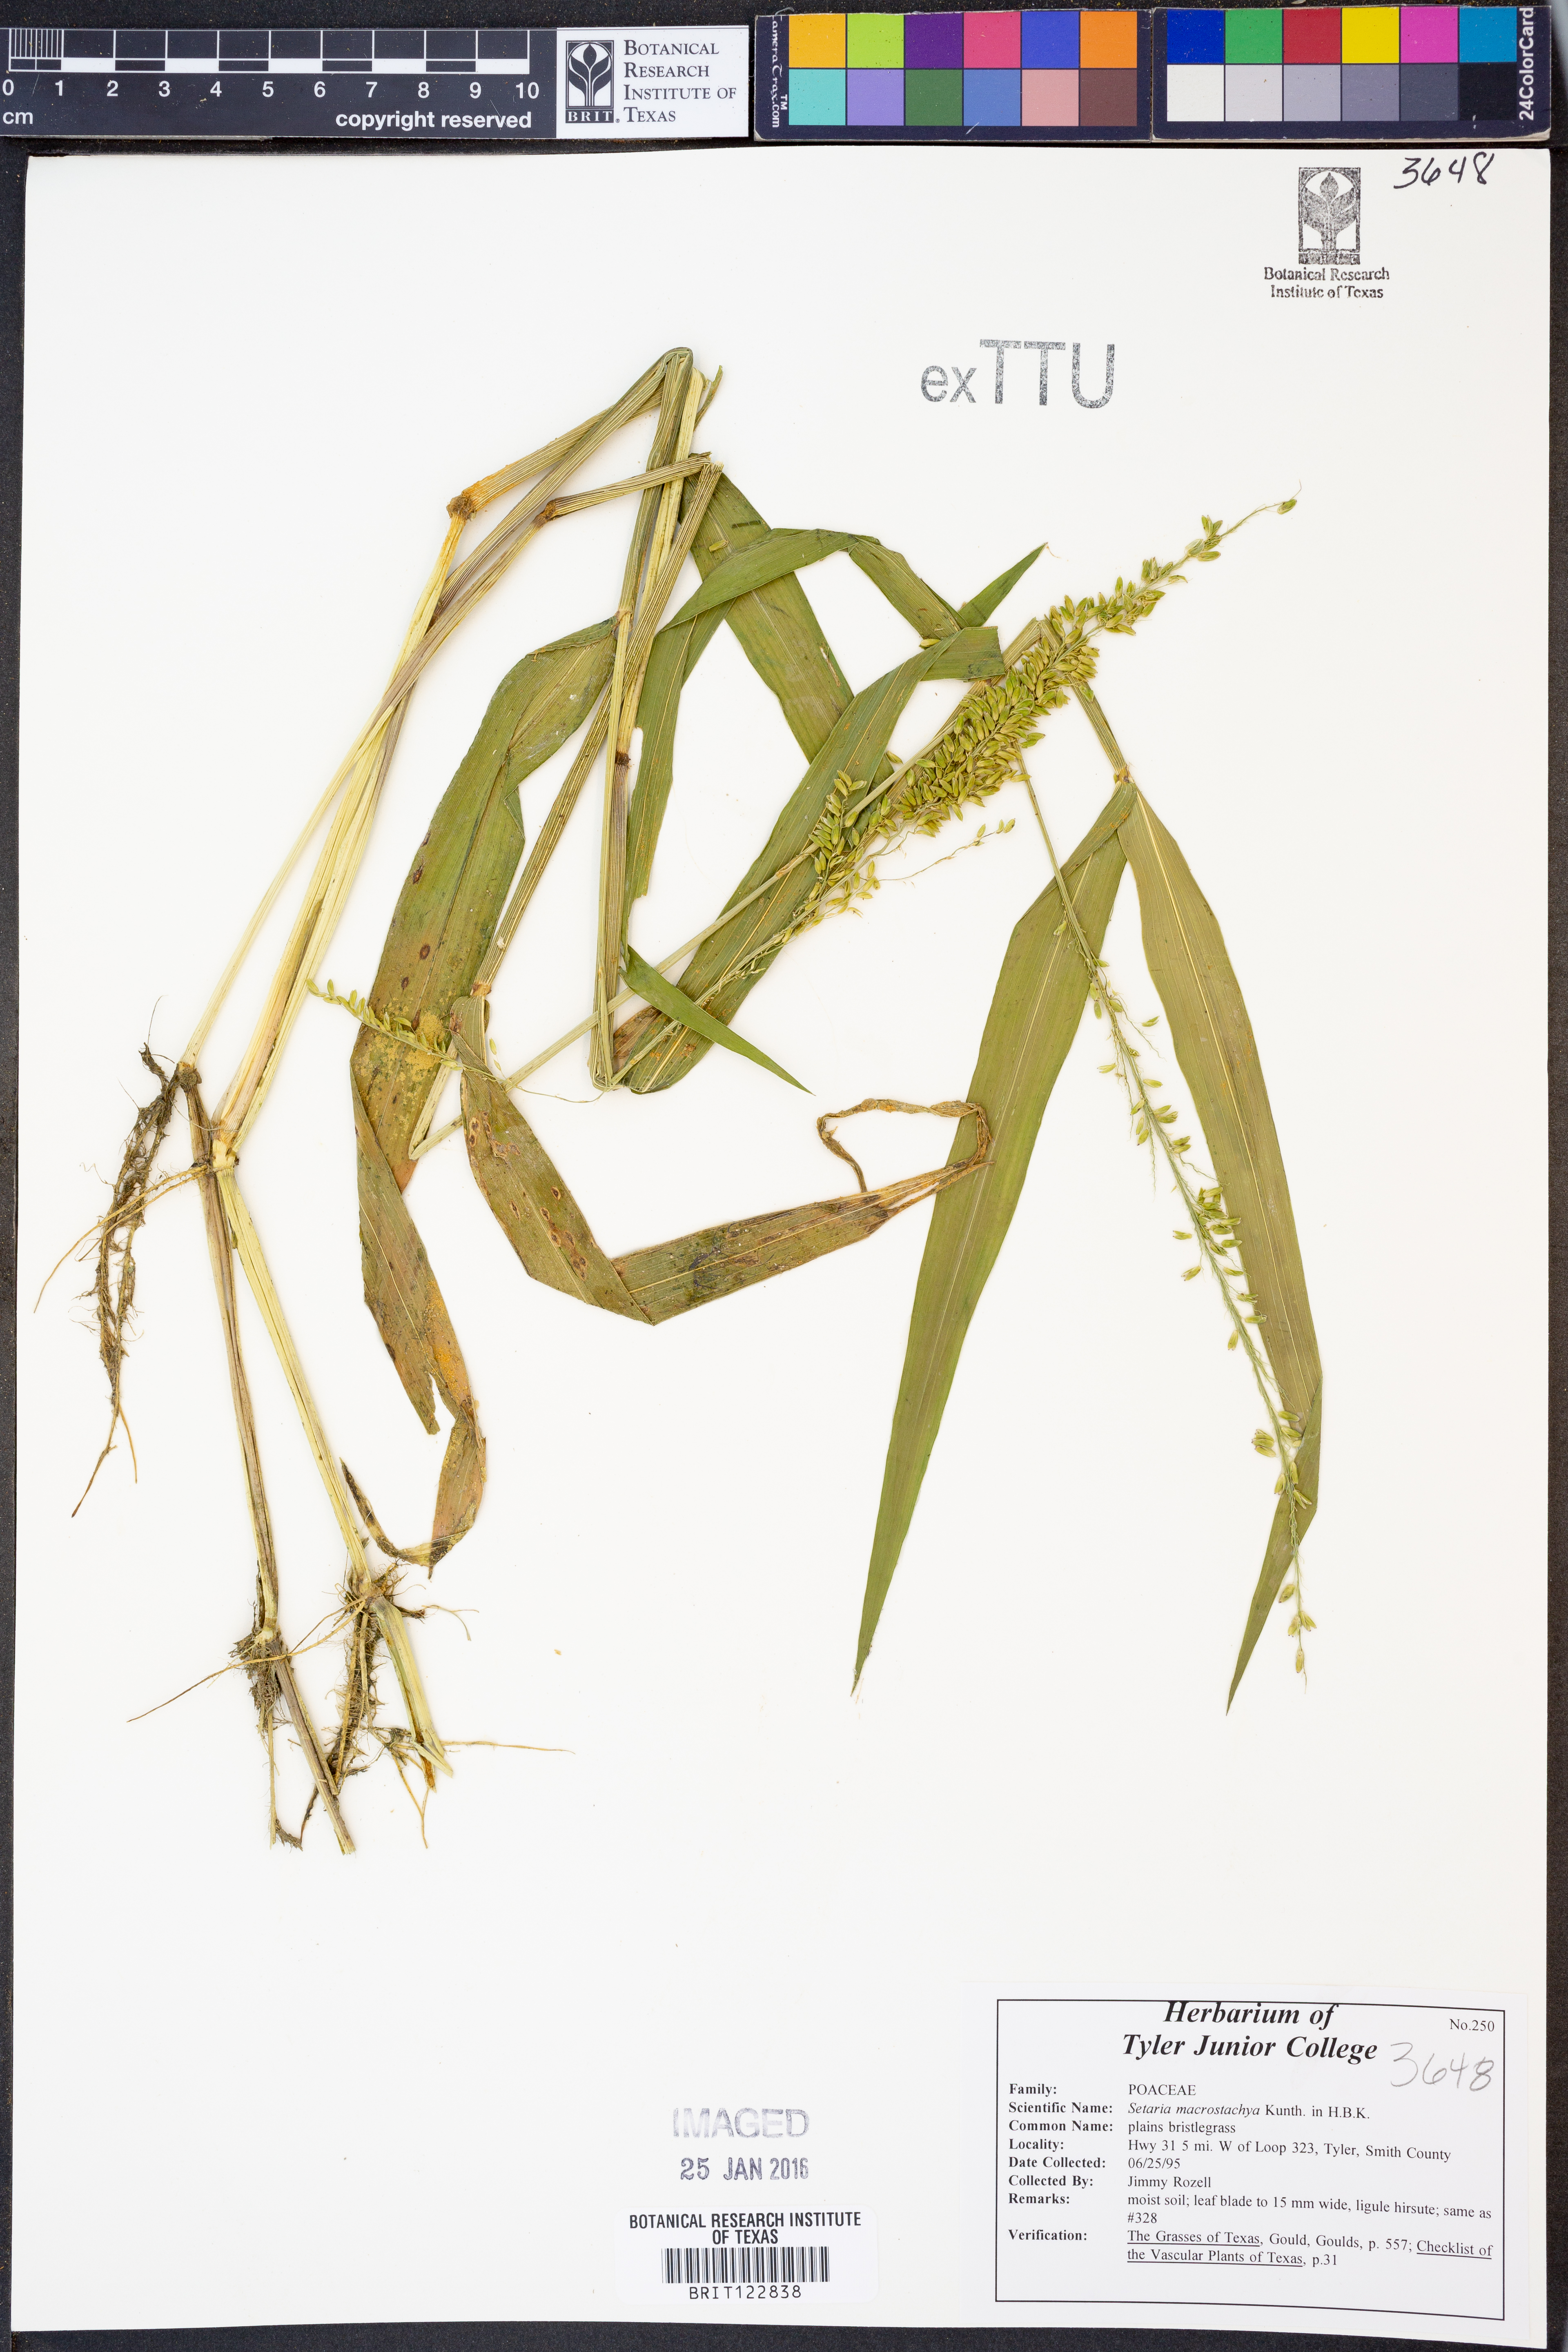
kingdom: Plantae
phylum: Tracheophyta
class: Liliopsida
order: Poales
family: Poaceae
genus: Setaria
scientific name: Setaria macrostachya
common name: Plains bristle grass
